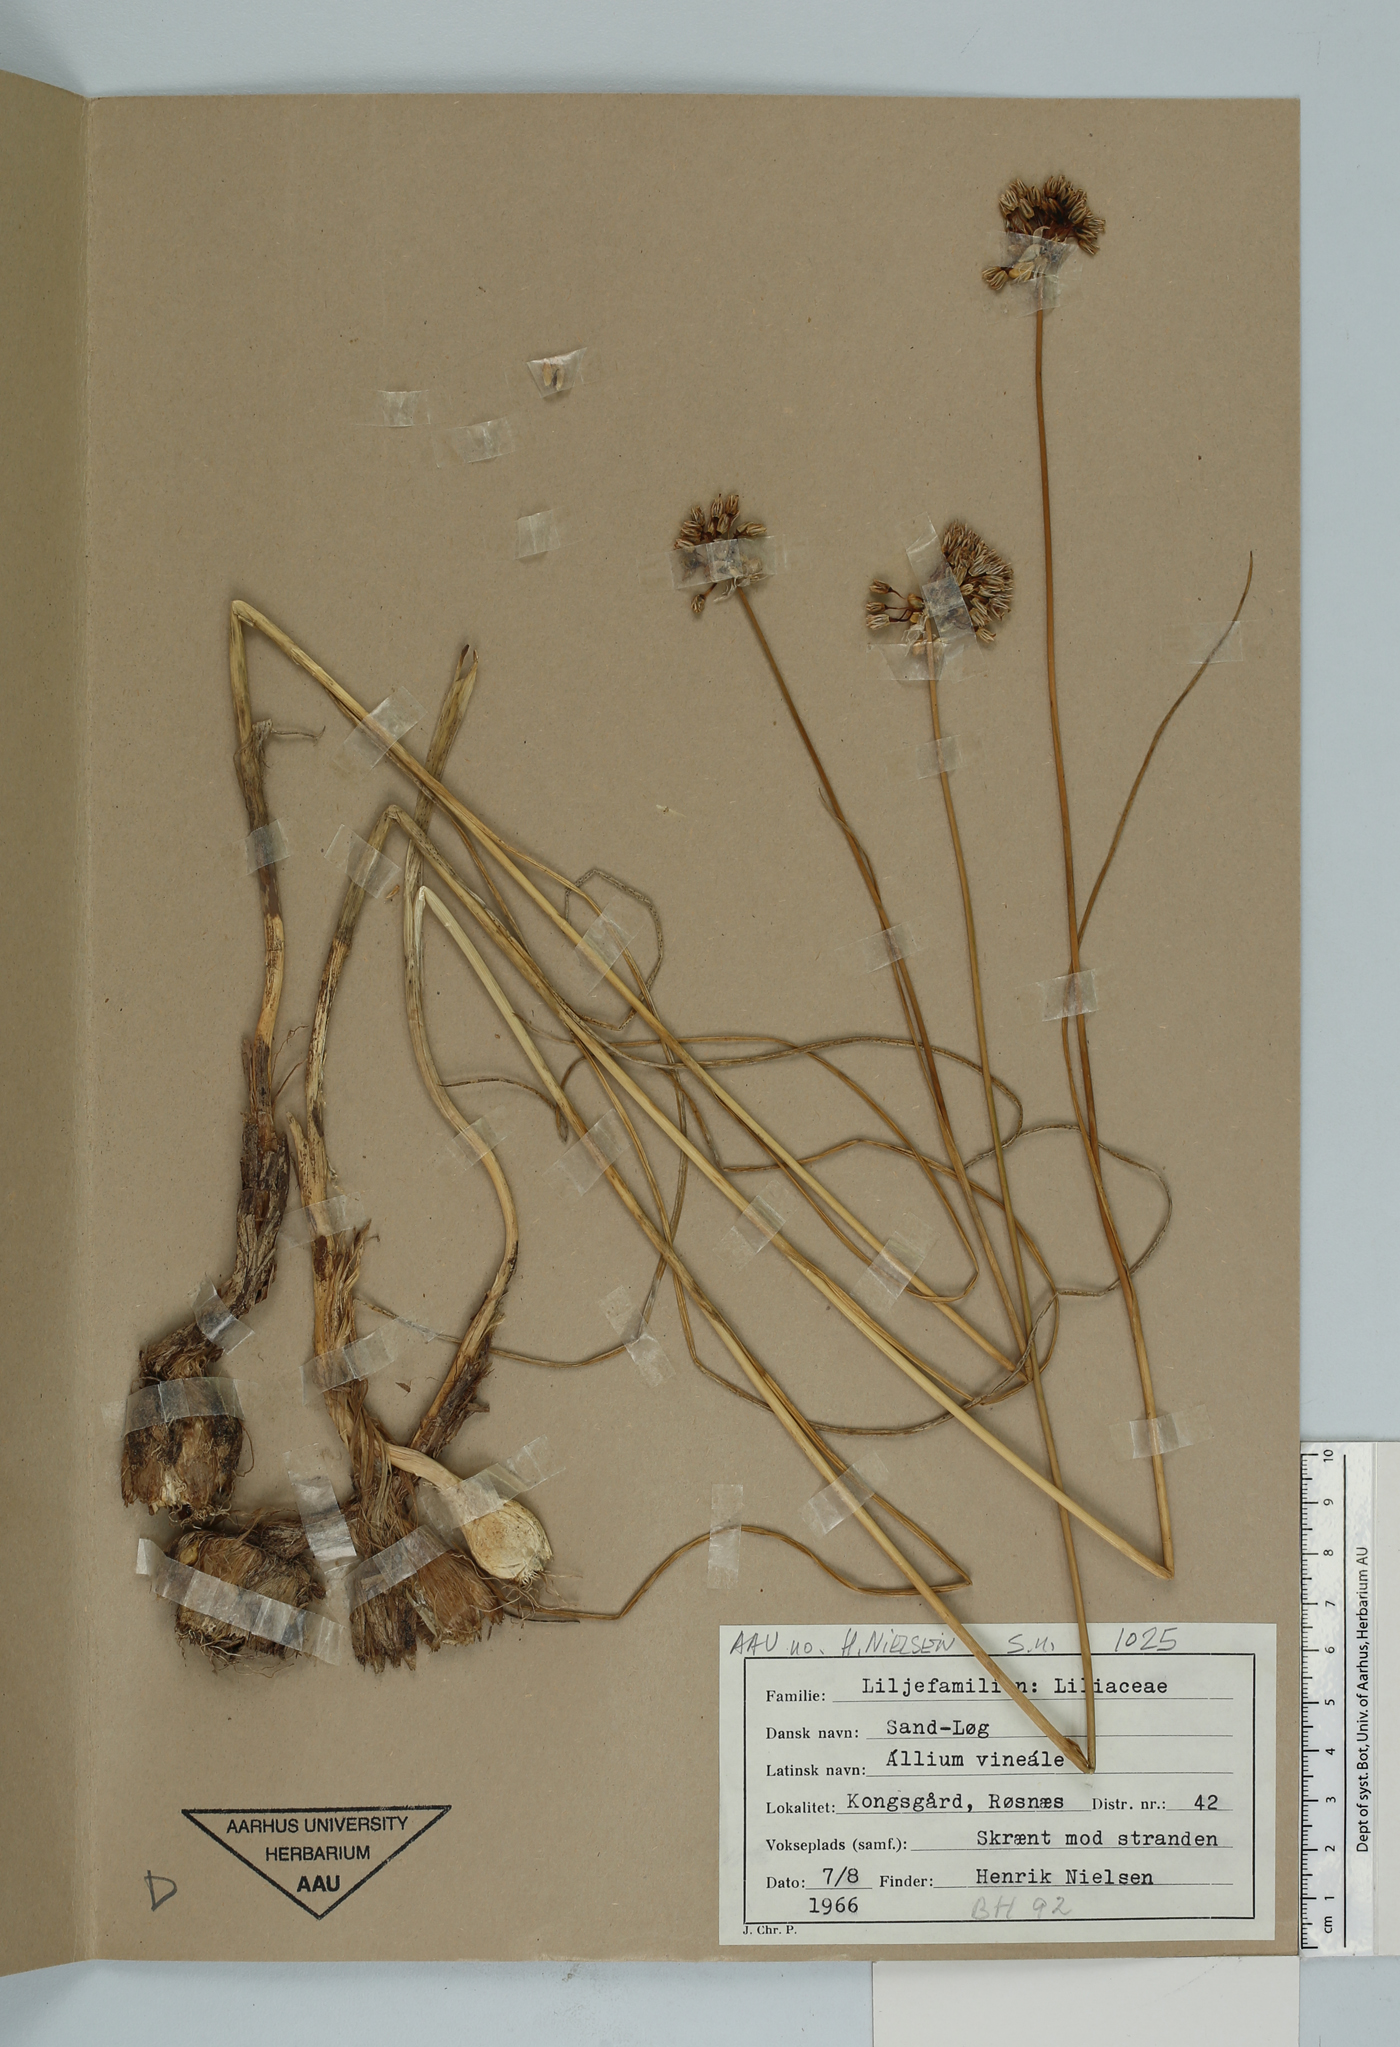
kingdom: Plantae
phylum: Tracheophyta
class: Liliopsida
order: Asparagales
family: Amaryllidaceae
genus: Allium
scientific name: Allium vineale
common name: Crow garlic
